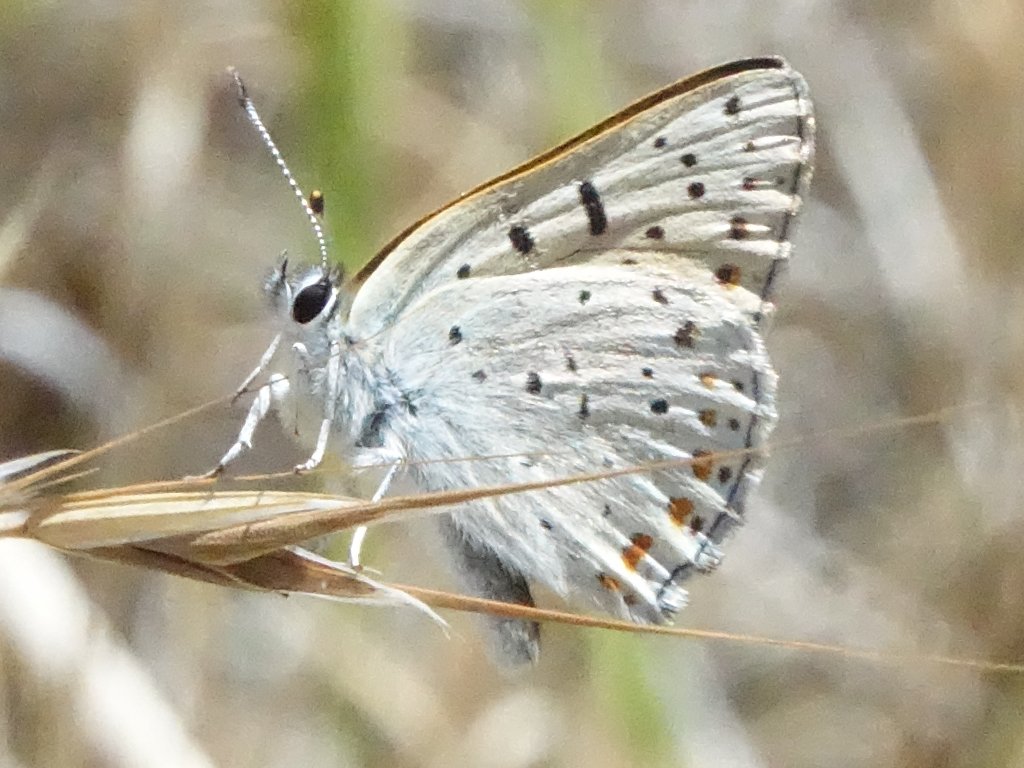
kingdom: Animalia
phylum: Arthropoda
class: Insecta
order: Lepidoptera
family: Lycaenidae
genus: Lycaena
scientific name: Lycaena gorgon
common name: Gorgon Copper
